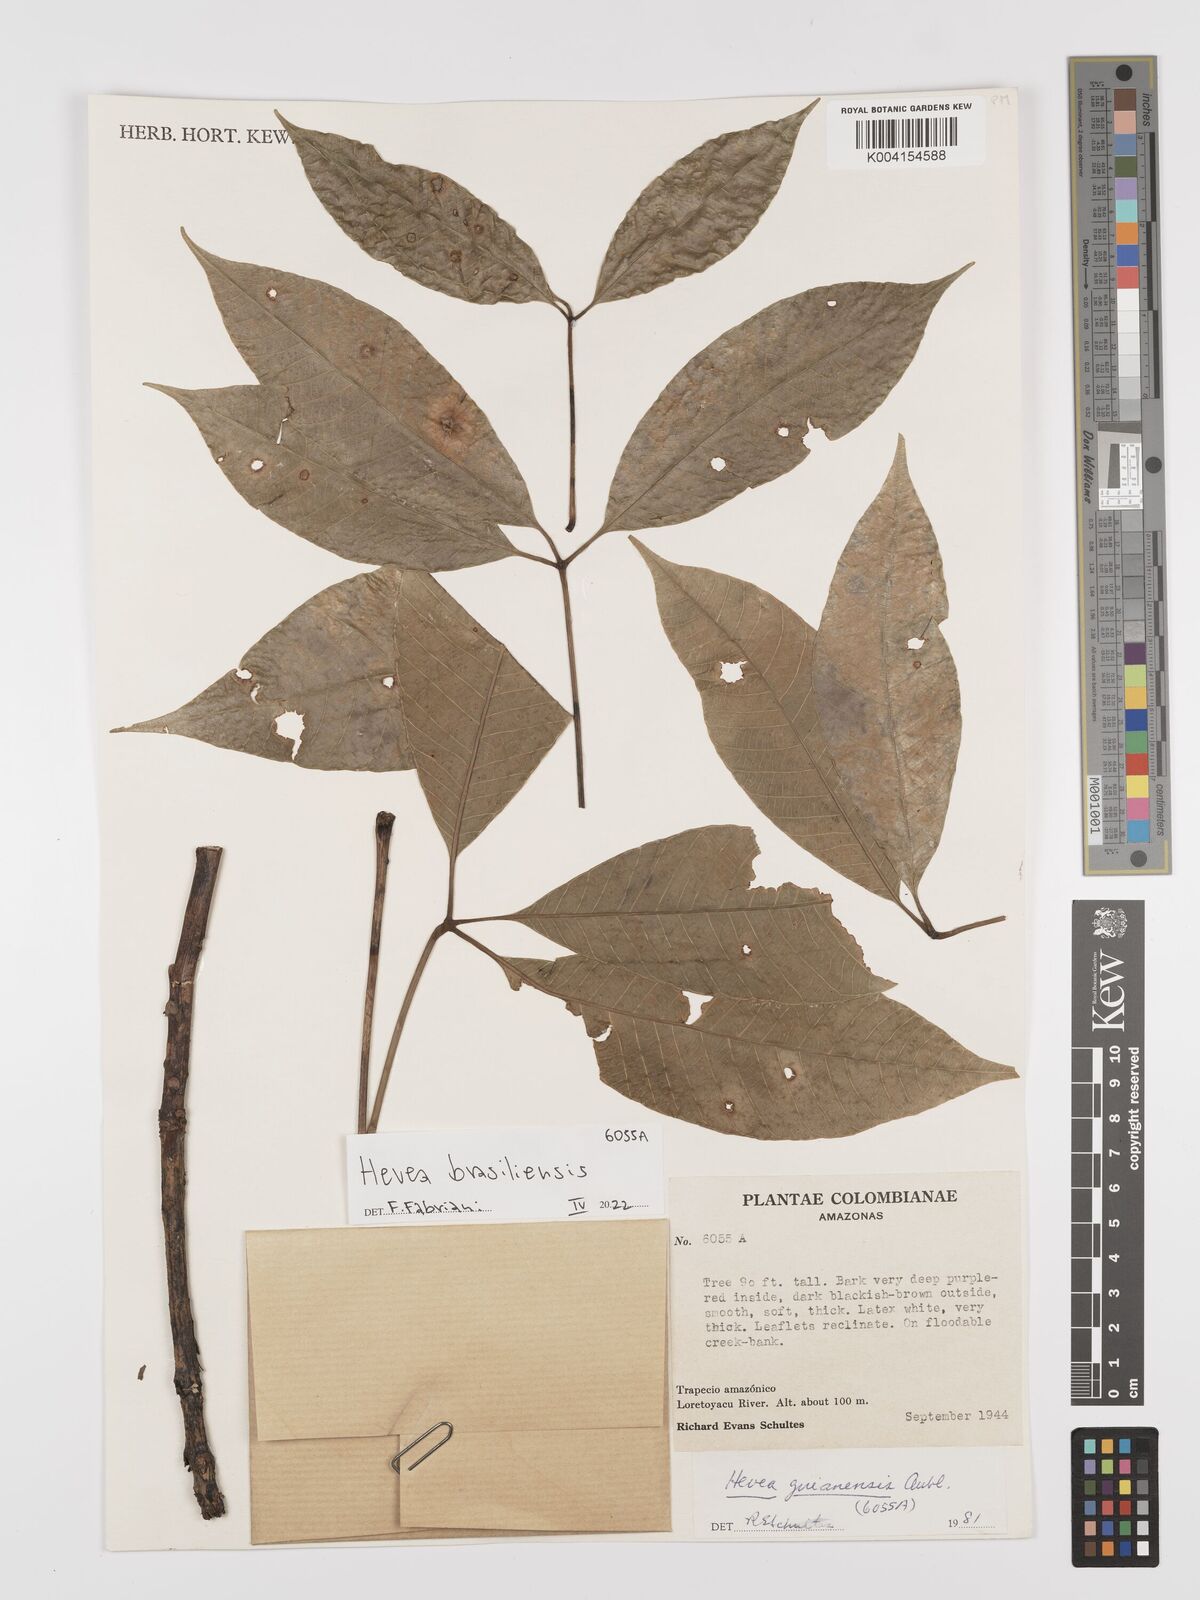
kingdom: Plantae
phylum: Tracheophyta
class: Magnoliopsida
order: Malpighiales
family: Euphorbiaceae
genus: Hevea
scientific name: Hevea brasiliensis
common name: Natural rubber
